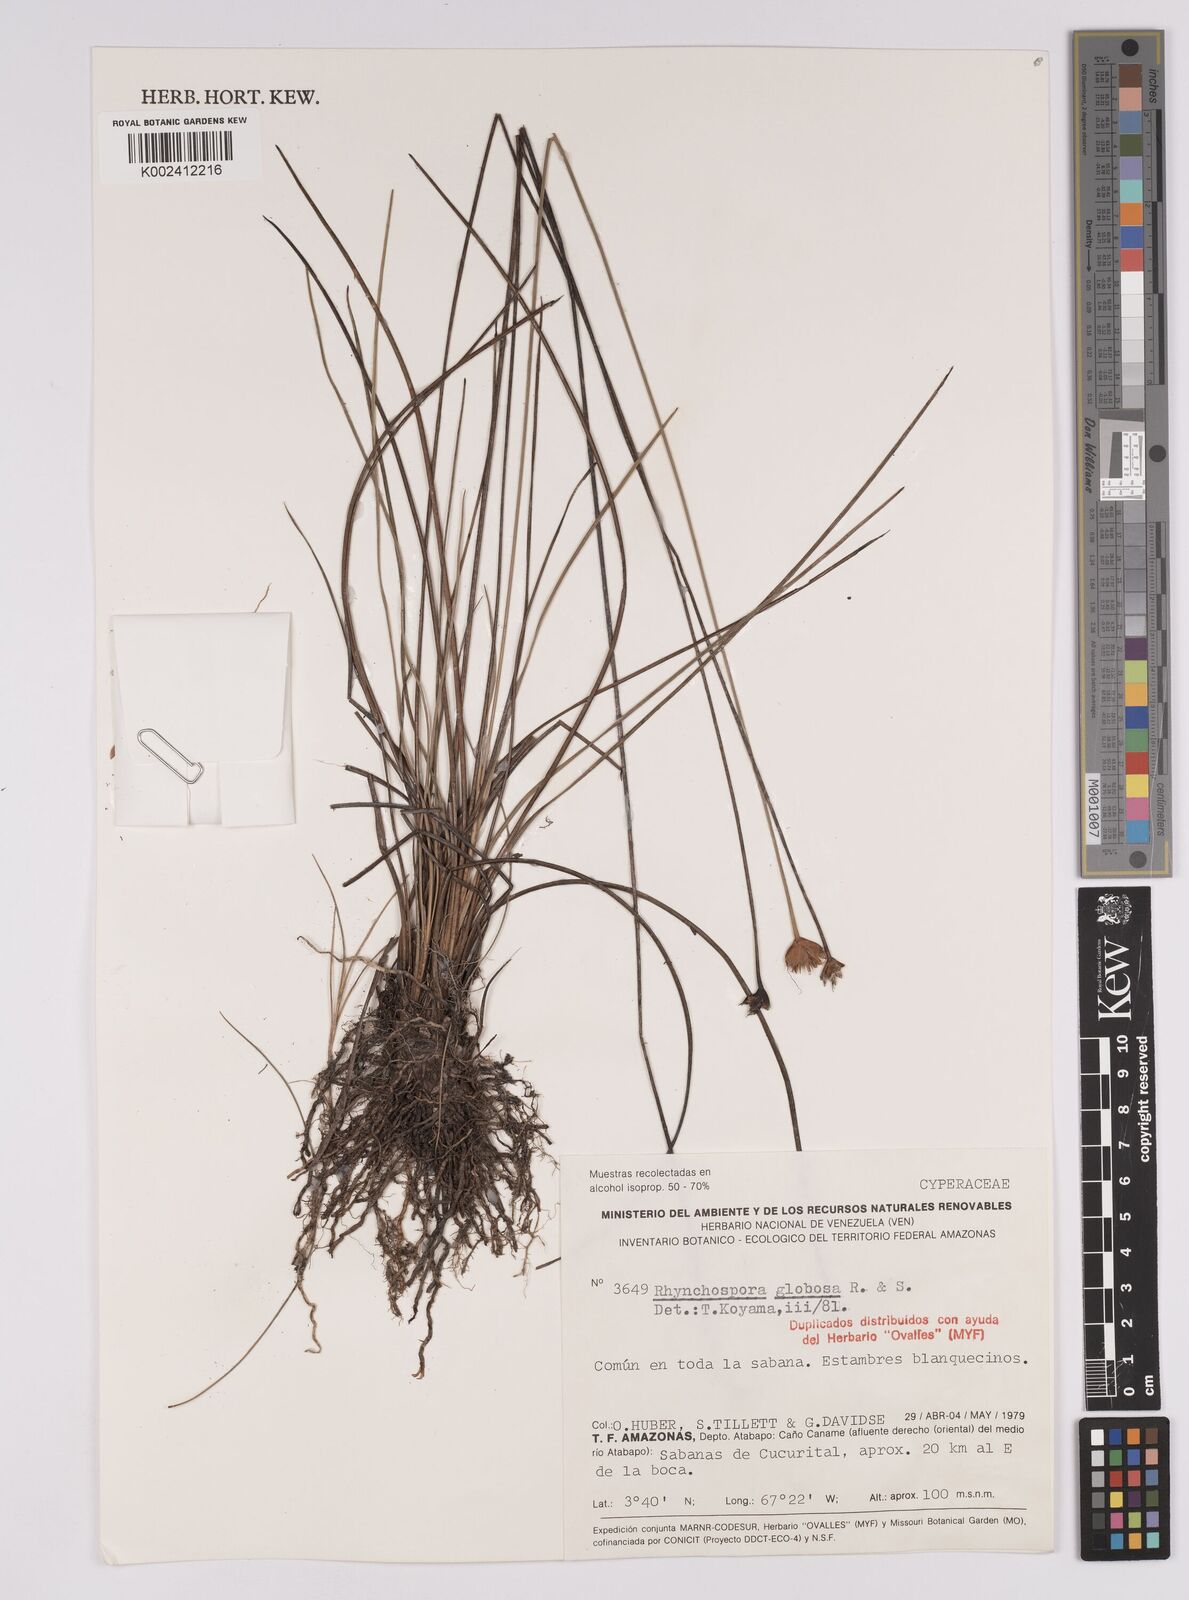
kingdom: Plantae
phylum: Tracheophyta
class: Liliopsida
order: Poales
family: Cyperaceae
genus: Rhynchospora
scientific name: Rhynchospora globosa
